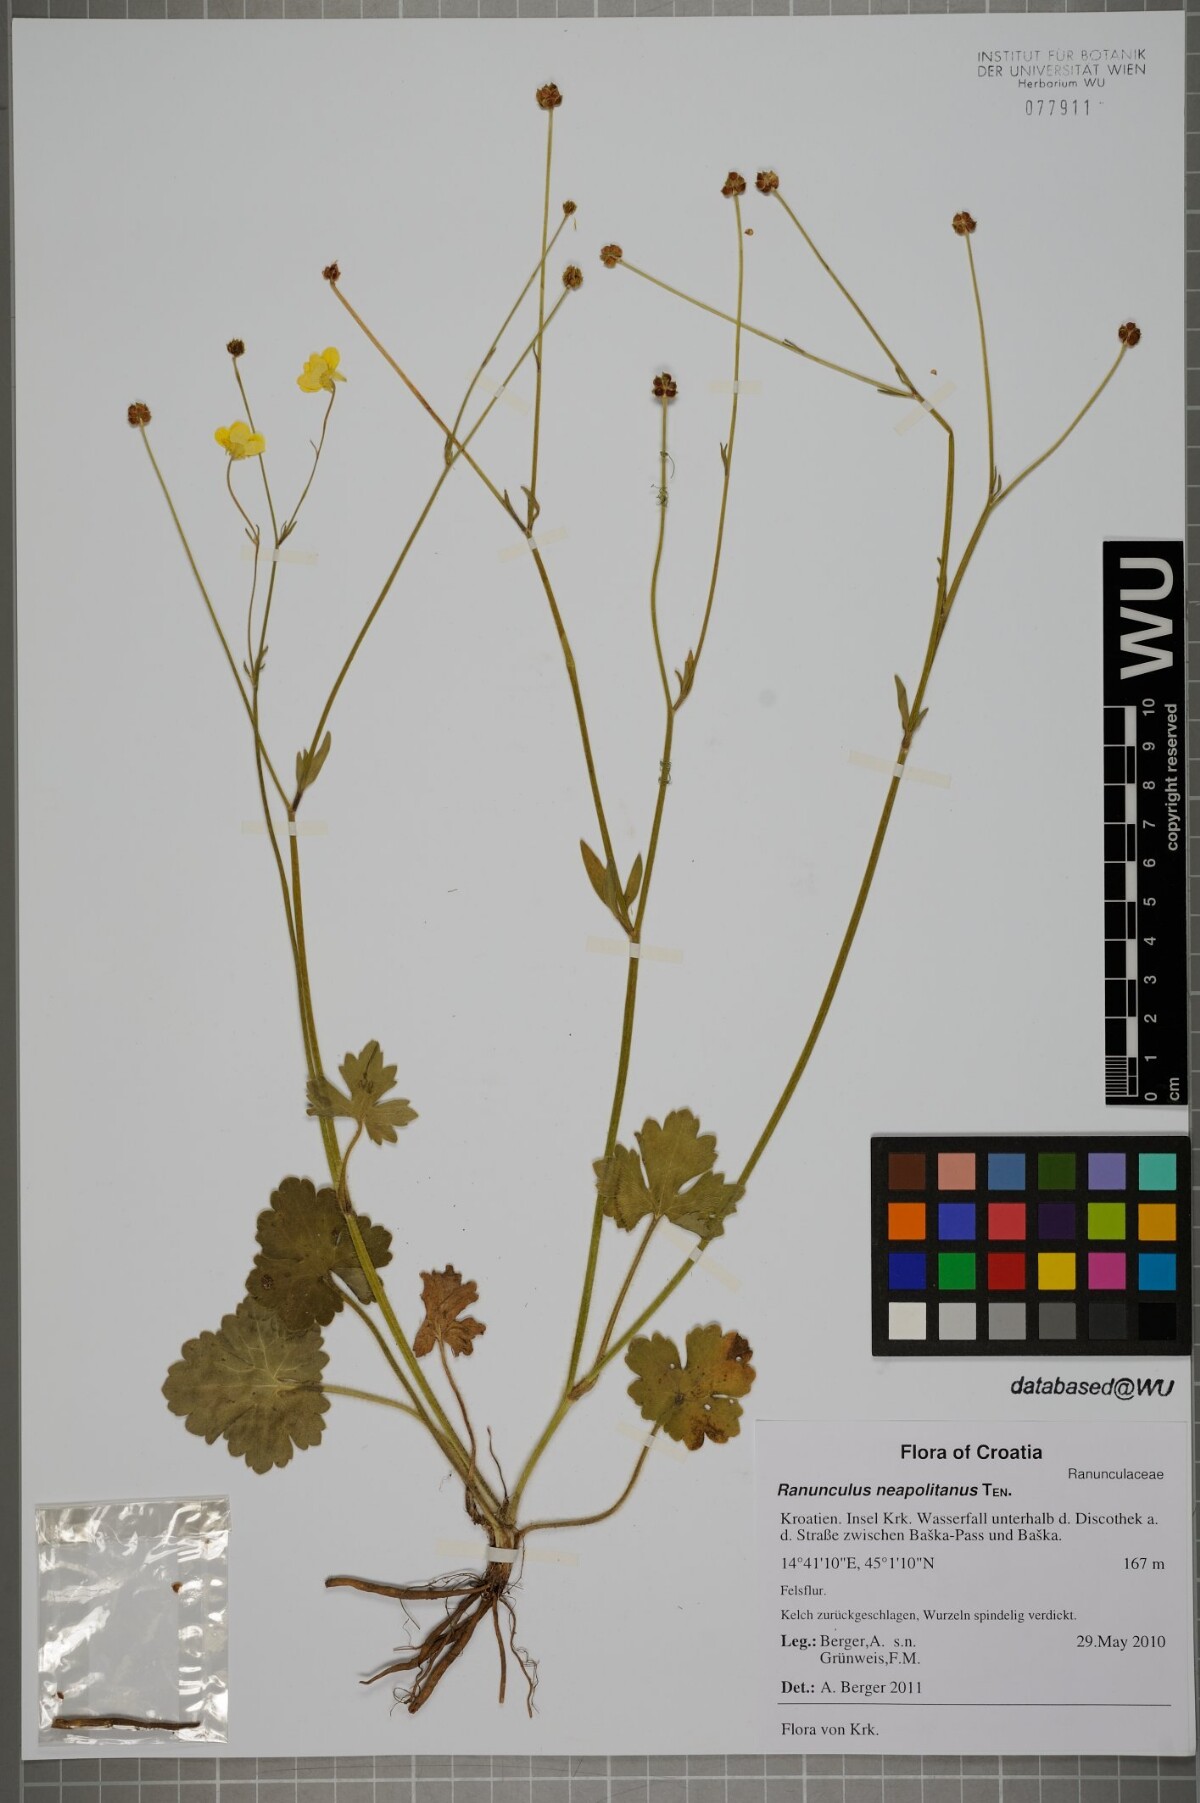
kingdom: Plantae
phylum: Tracheophyta
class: Magnoliopsida
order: Ranunculales
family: Ranunculaceae
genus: Ranunculus
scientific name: Ranunculus neapolitanus
